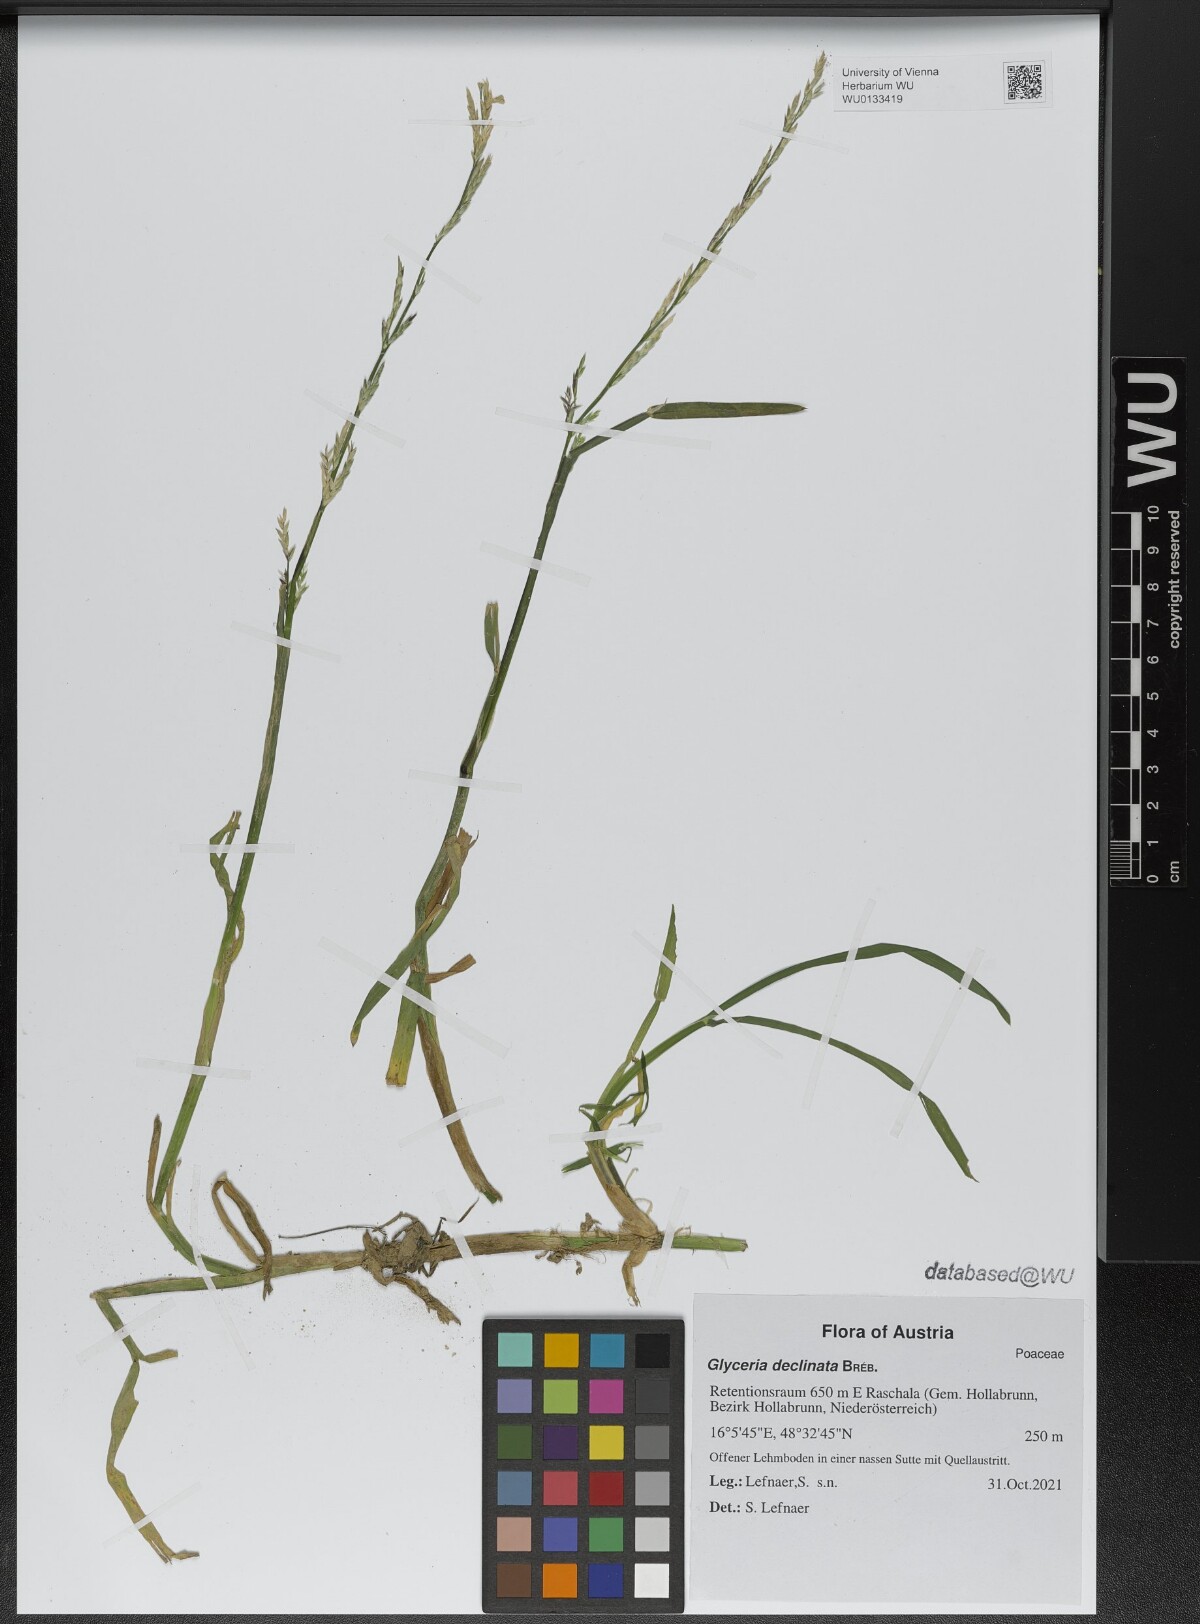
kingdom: Plantae
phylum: Tracheophyta
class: Liliopsida
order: Poales
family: Poaceae
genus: Glyceria
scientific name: Glyceria declinata
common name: Small sweet-grass
